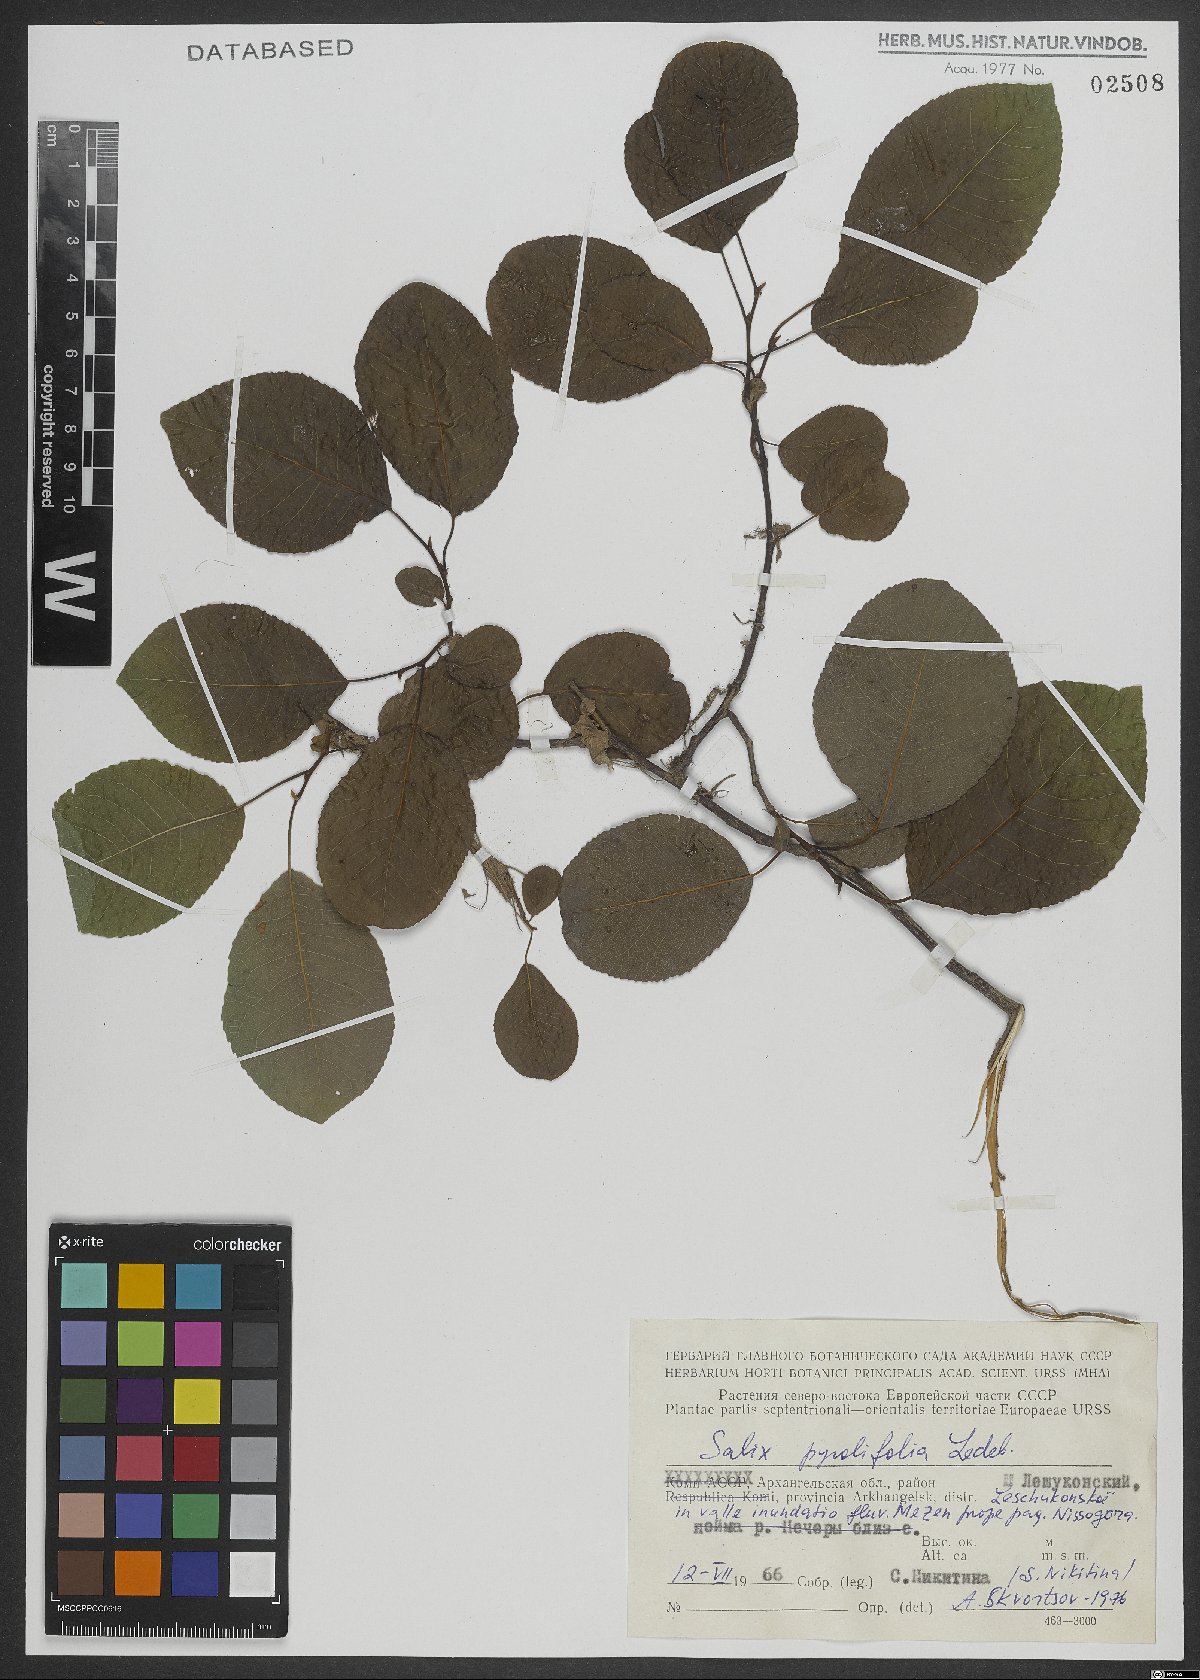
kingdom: Plantae
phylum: Tracheophyta
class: Magnoliopsida
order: Malpighiales
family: Salicaceae
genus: Salix
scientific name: Salix pyrolifolia
